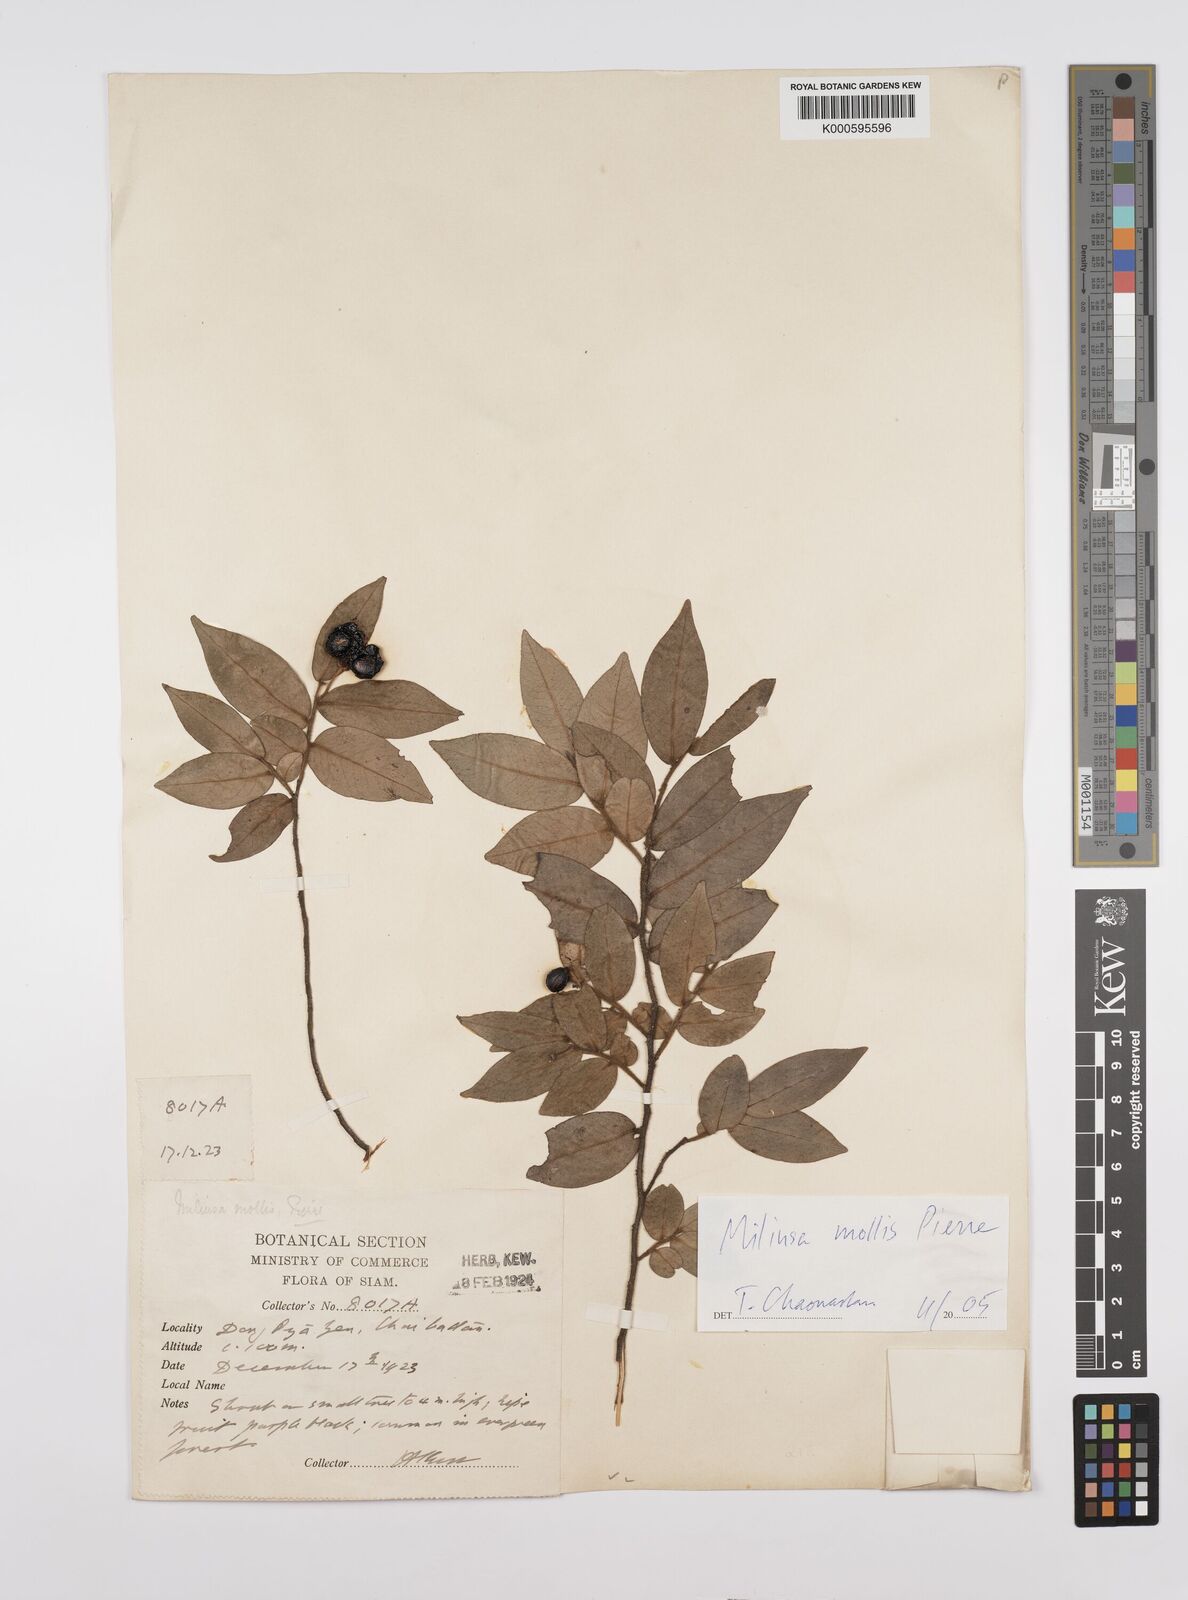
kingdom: Plantae
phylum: Tracheophyta
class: Magnoliopsida
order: Magnoliales
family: Annonaceae
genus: Miliusa
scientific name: Miliusa mollis
